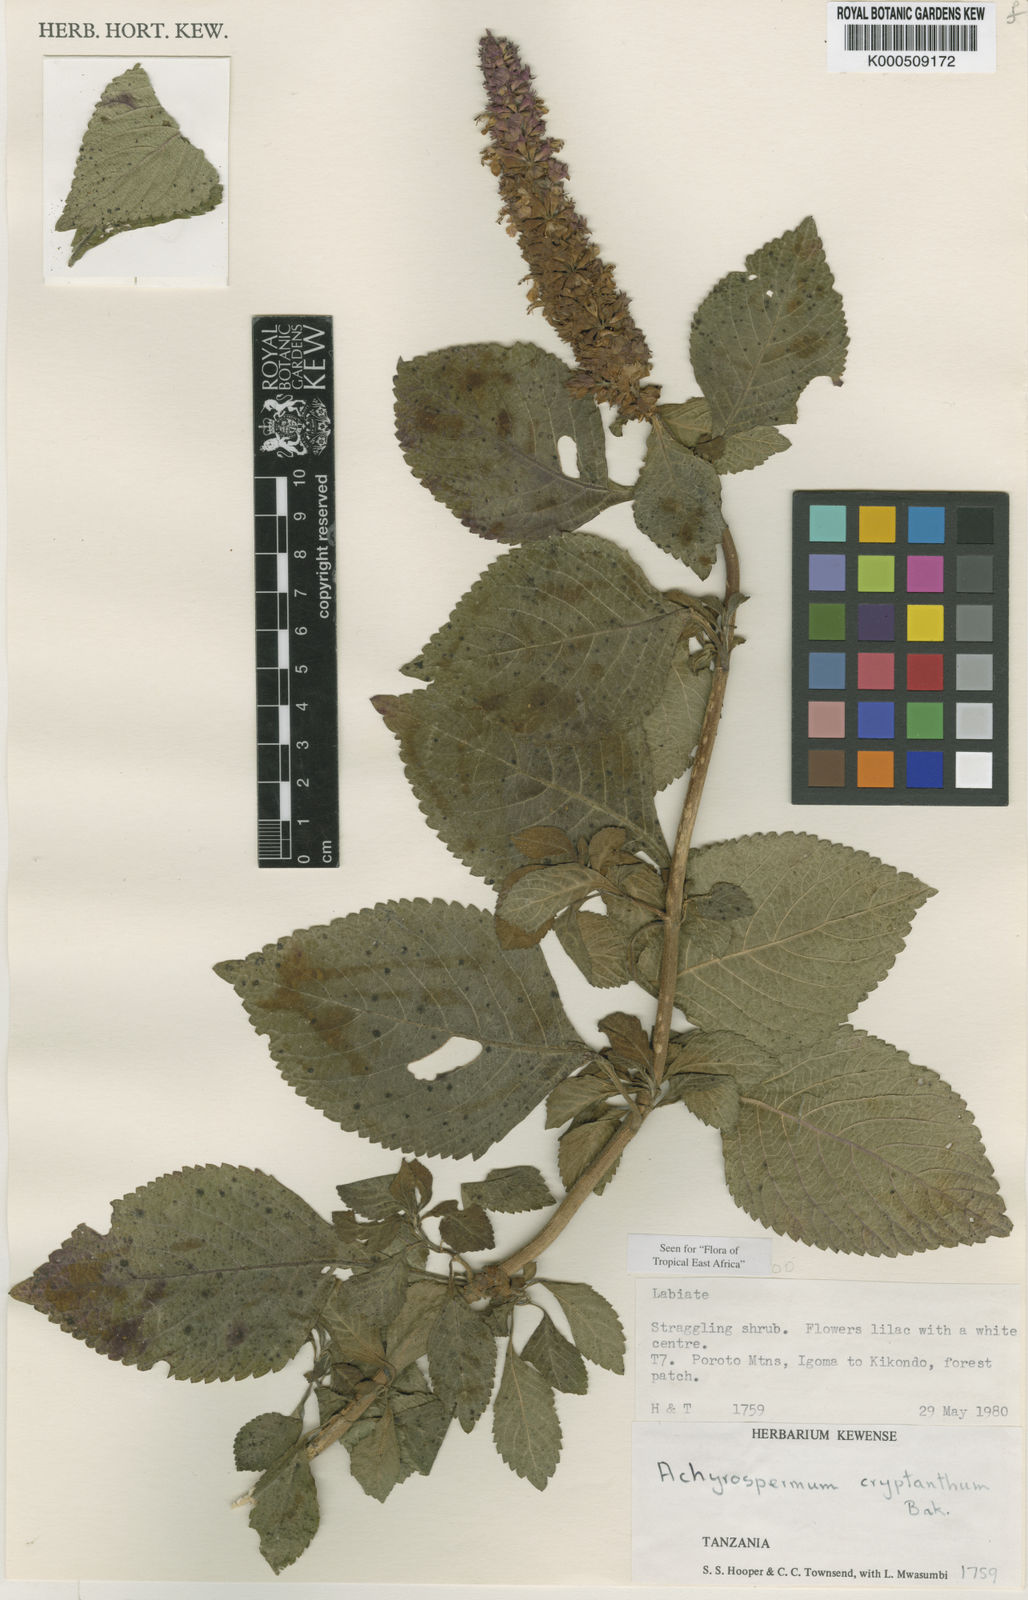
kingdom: Plantae
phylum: Tracheophyta
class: Magnoliopsida
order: Lamiales
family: Lamiaceae
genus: Achyrospermum
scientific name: Achyrospermum cryptanthum
